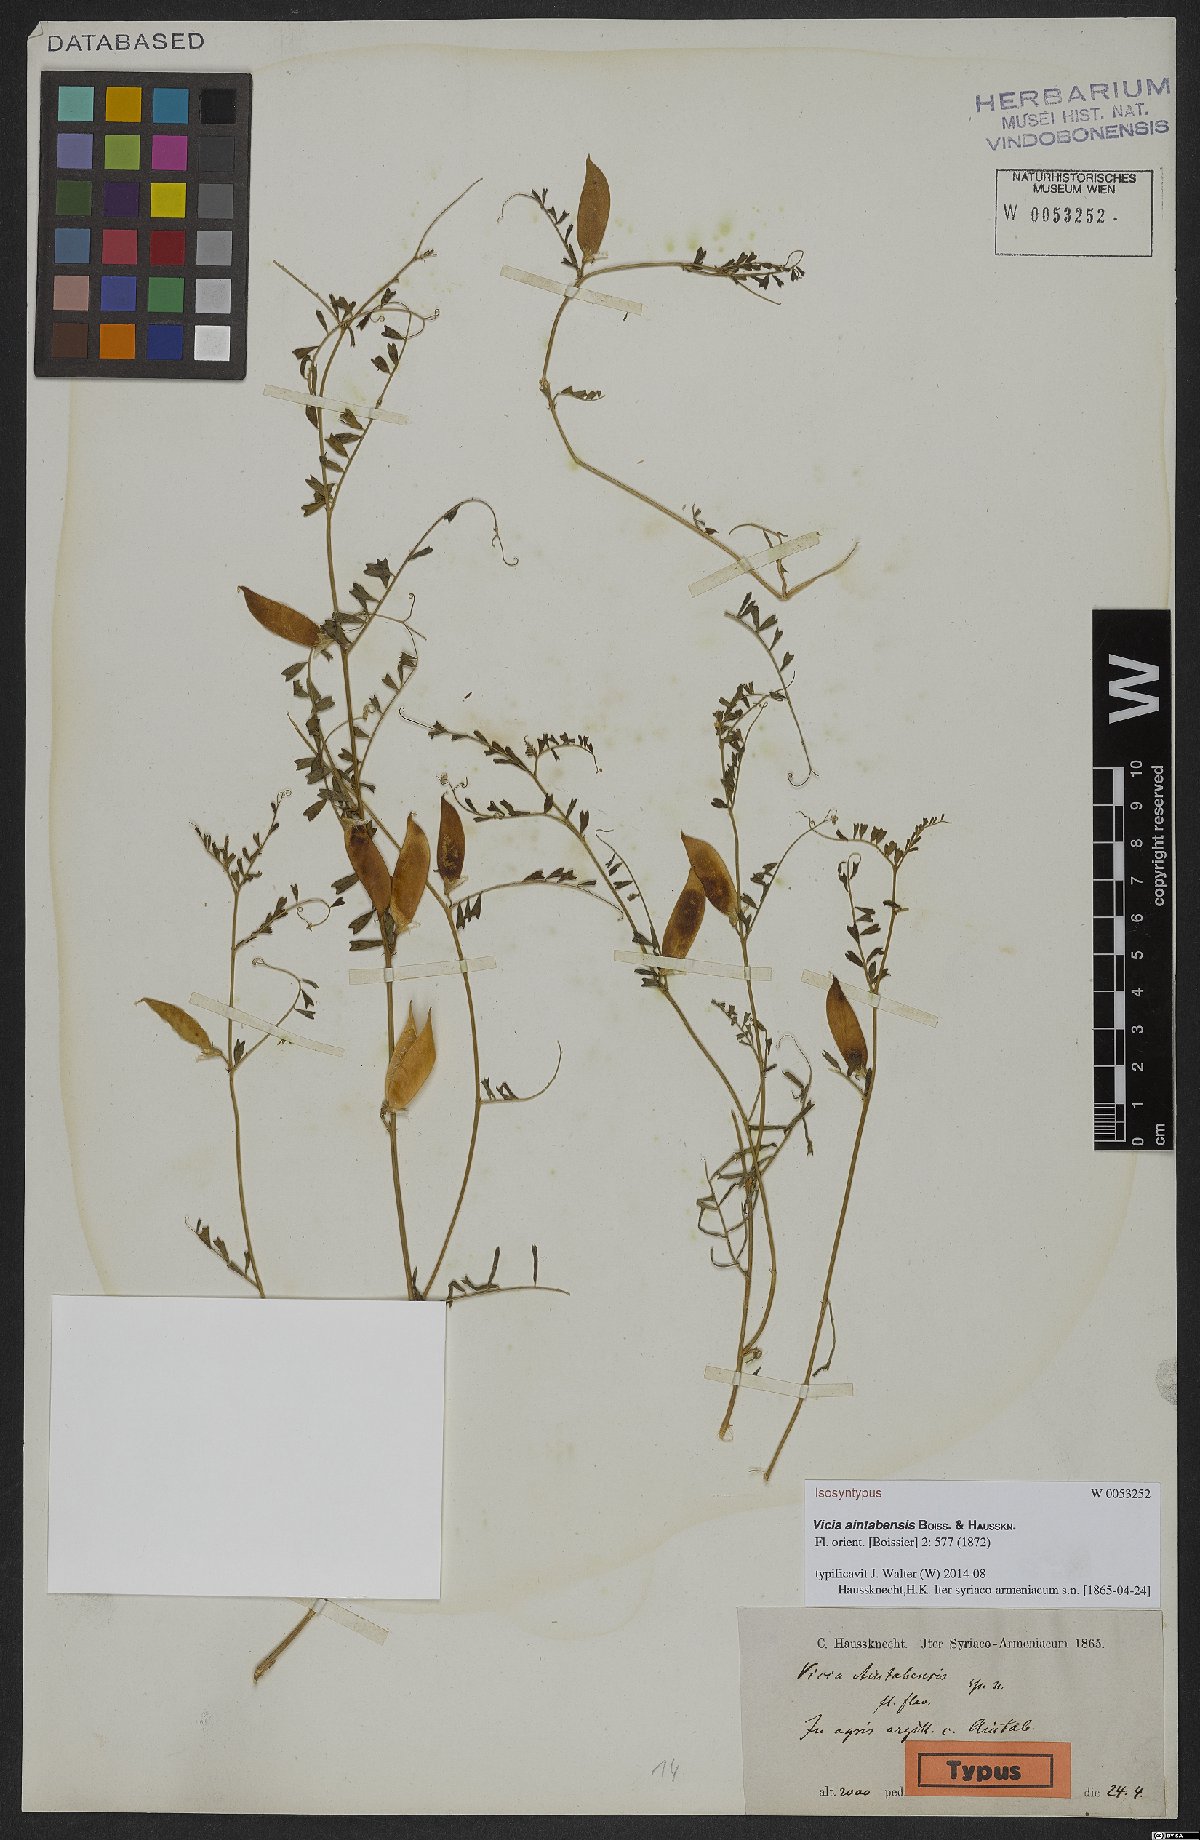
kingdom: Plantae
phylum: Tracheophyta
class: Magnoliopsida
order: Fabales
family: Fabaceae
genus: Vicia
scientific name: Vicia aintabensis
